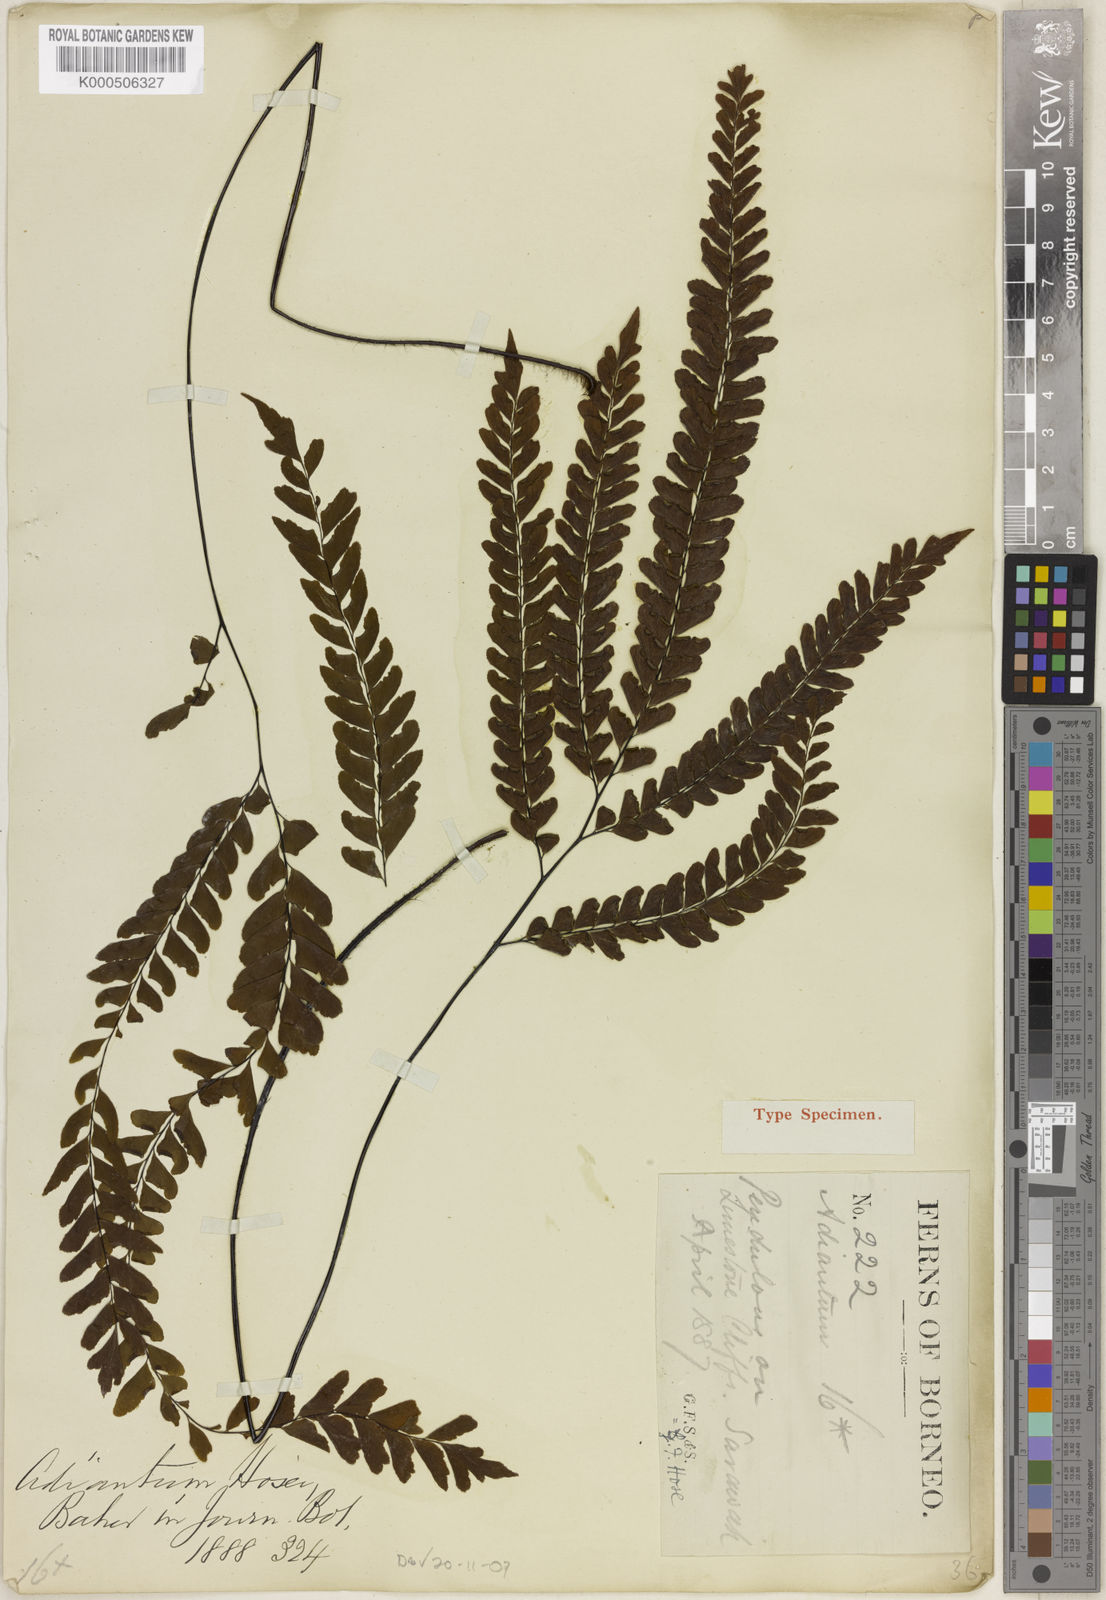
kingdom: Plantae
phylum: Tracheophyta
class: Polypodiopsida
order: Polypodiales
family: Pteridaceae
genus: Adiantum
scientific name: Adiantum hosei
